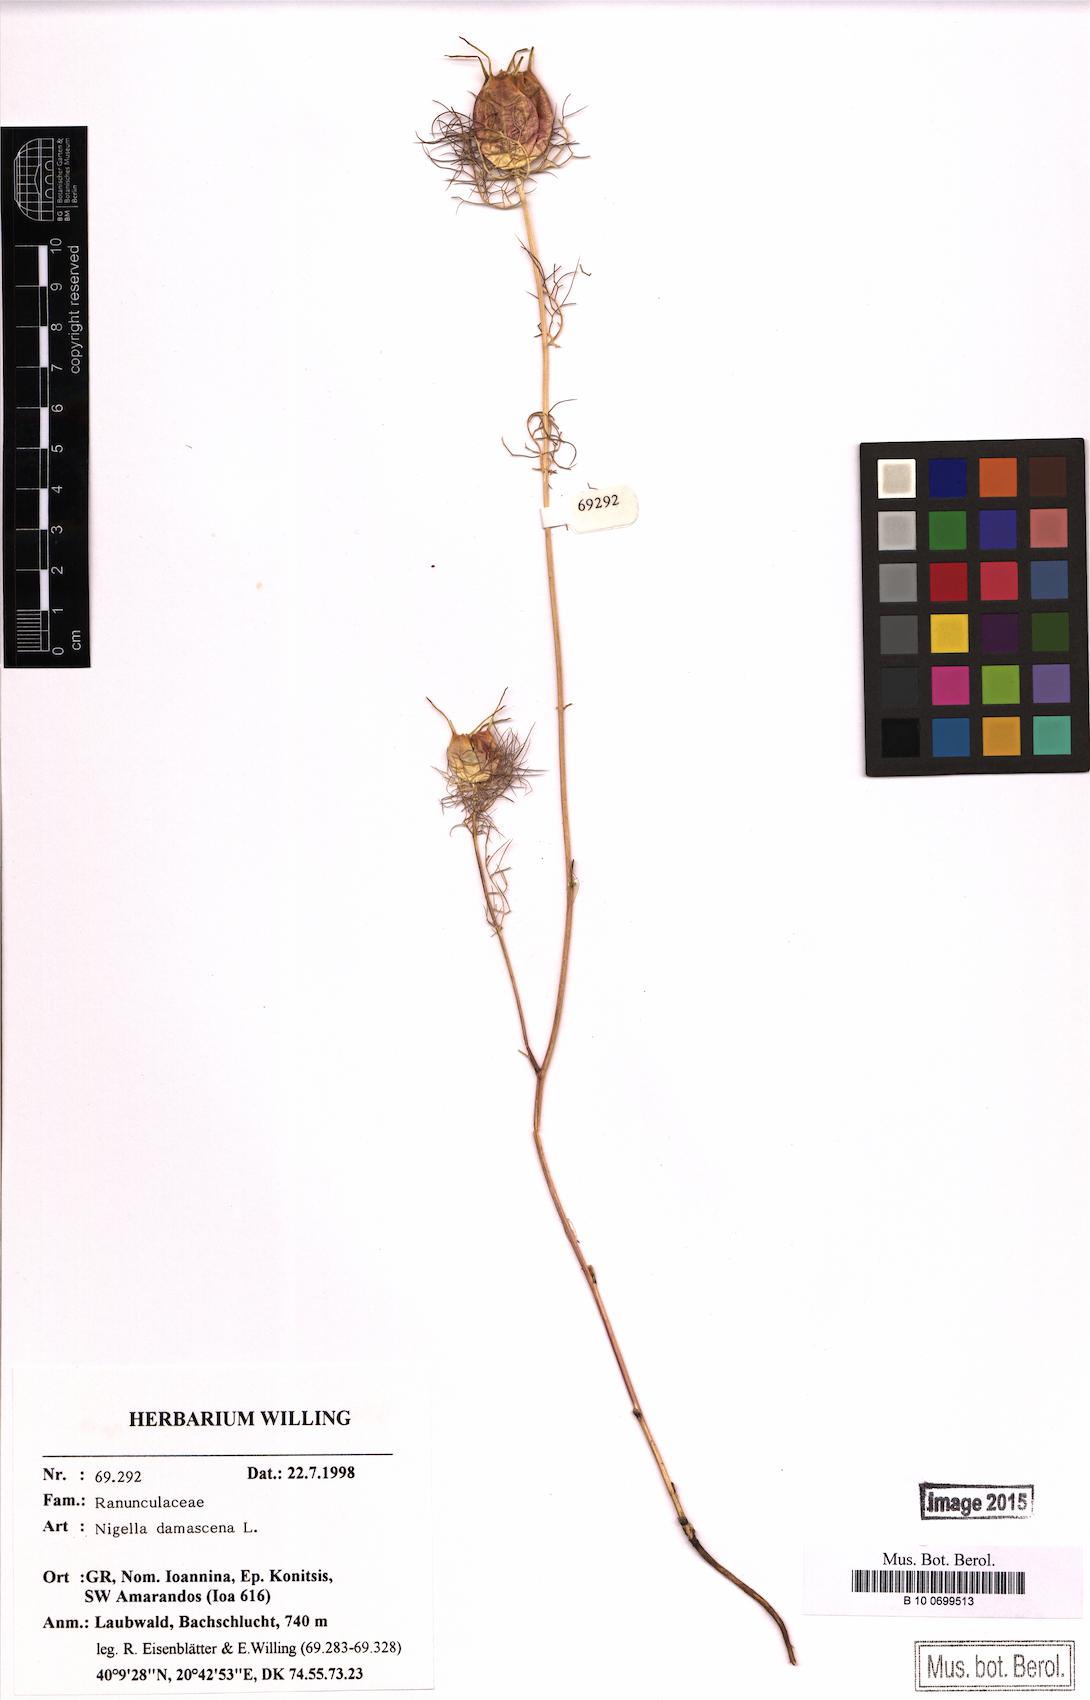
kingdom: Plantae
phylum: Tracheophyta
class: Magnoliopsida
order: Ranunculales
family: Ranunculaceae
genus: Nigella
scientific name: Nigella damascena
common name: Love-in-a-mist
